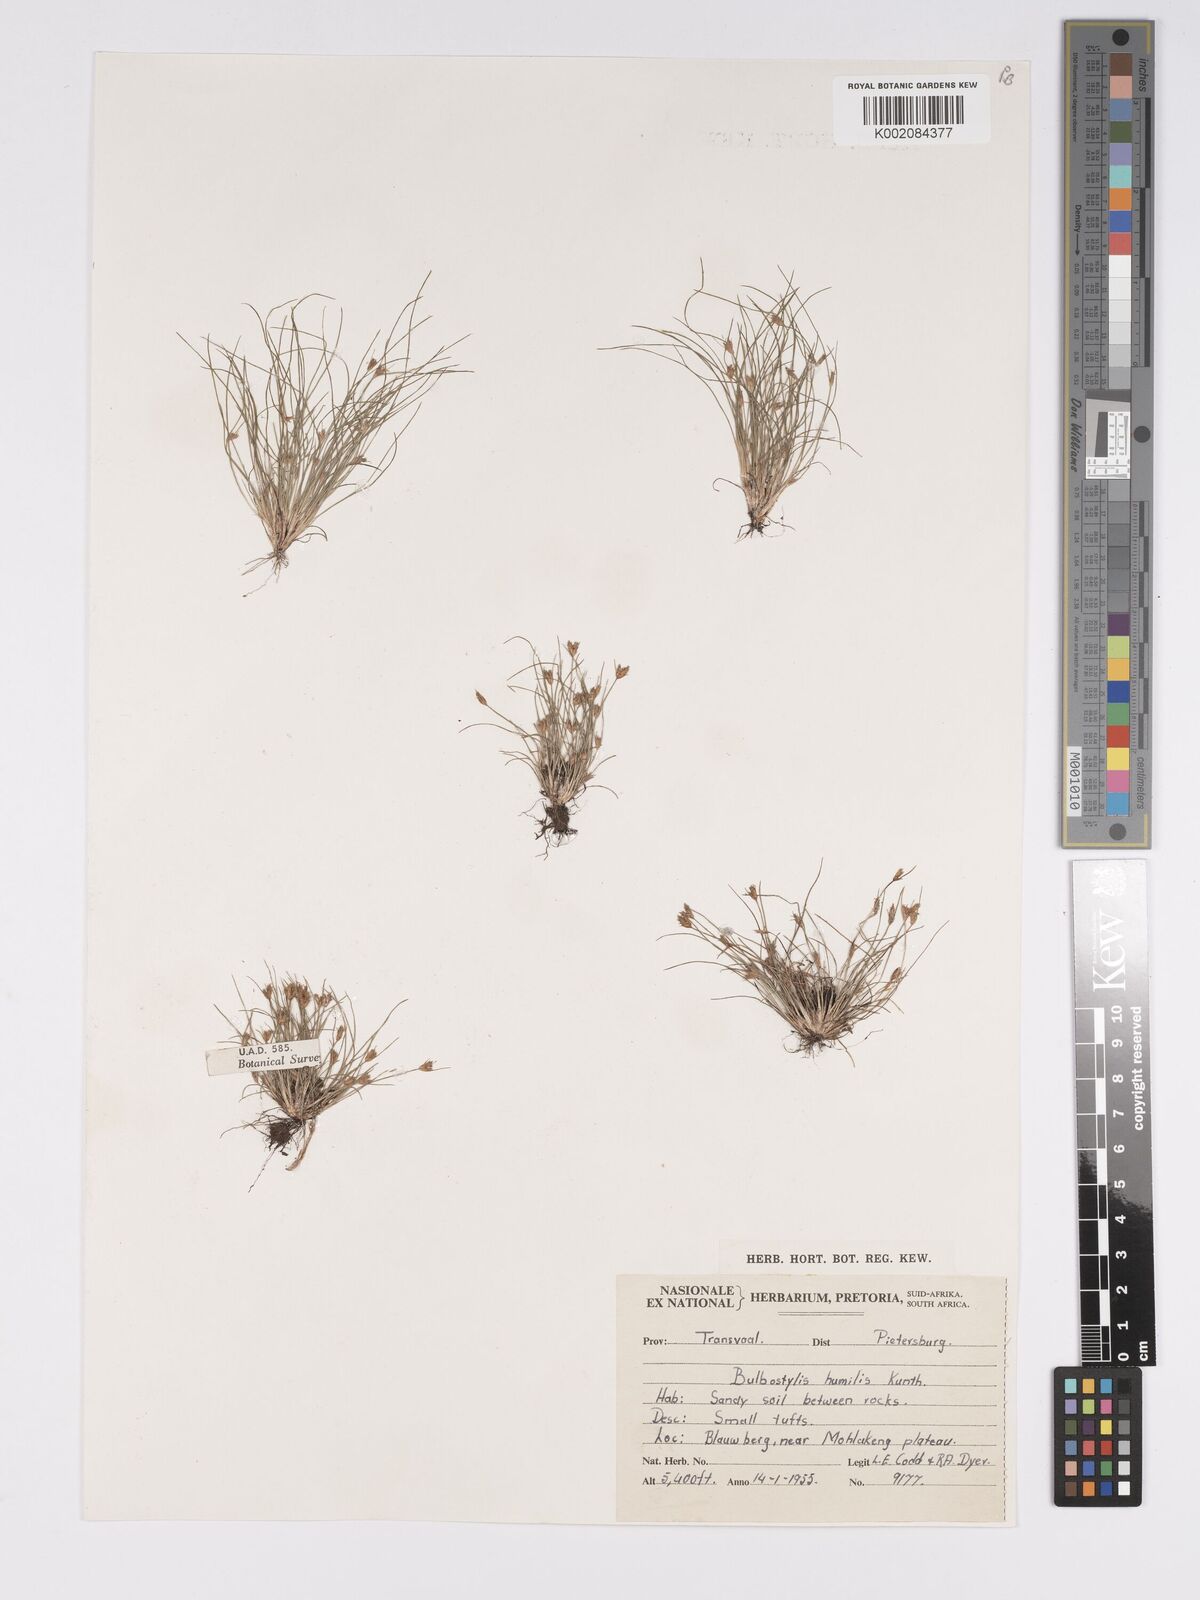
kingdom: Plantae
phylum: Tracheophyta
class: Liliopsida
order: Poales
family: Cyperaceae
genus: Bulbostylis
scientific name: Bulbostylis humilis
